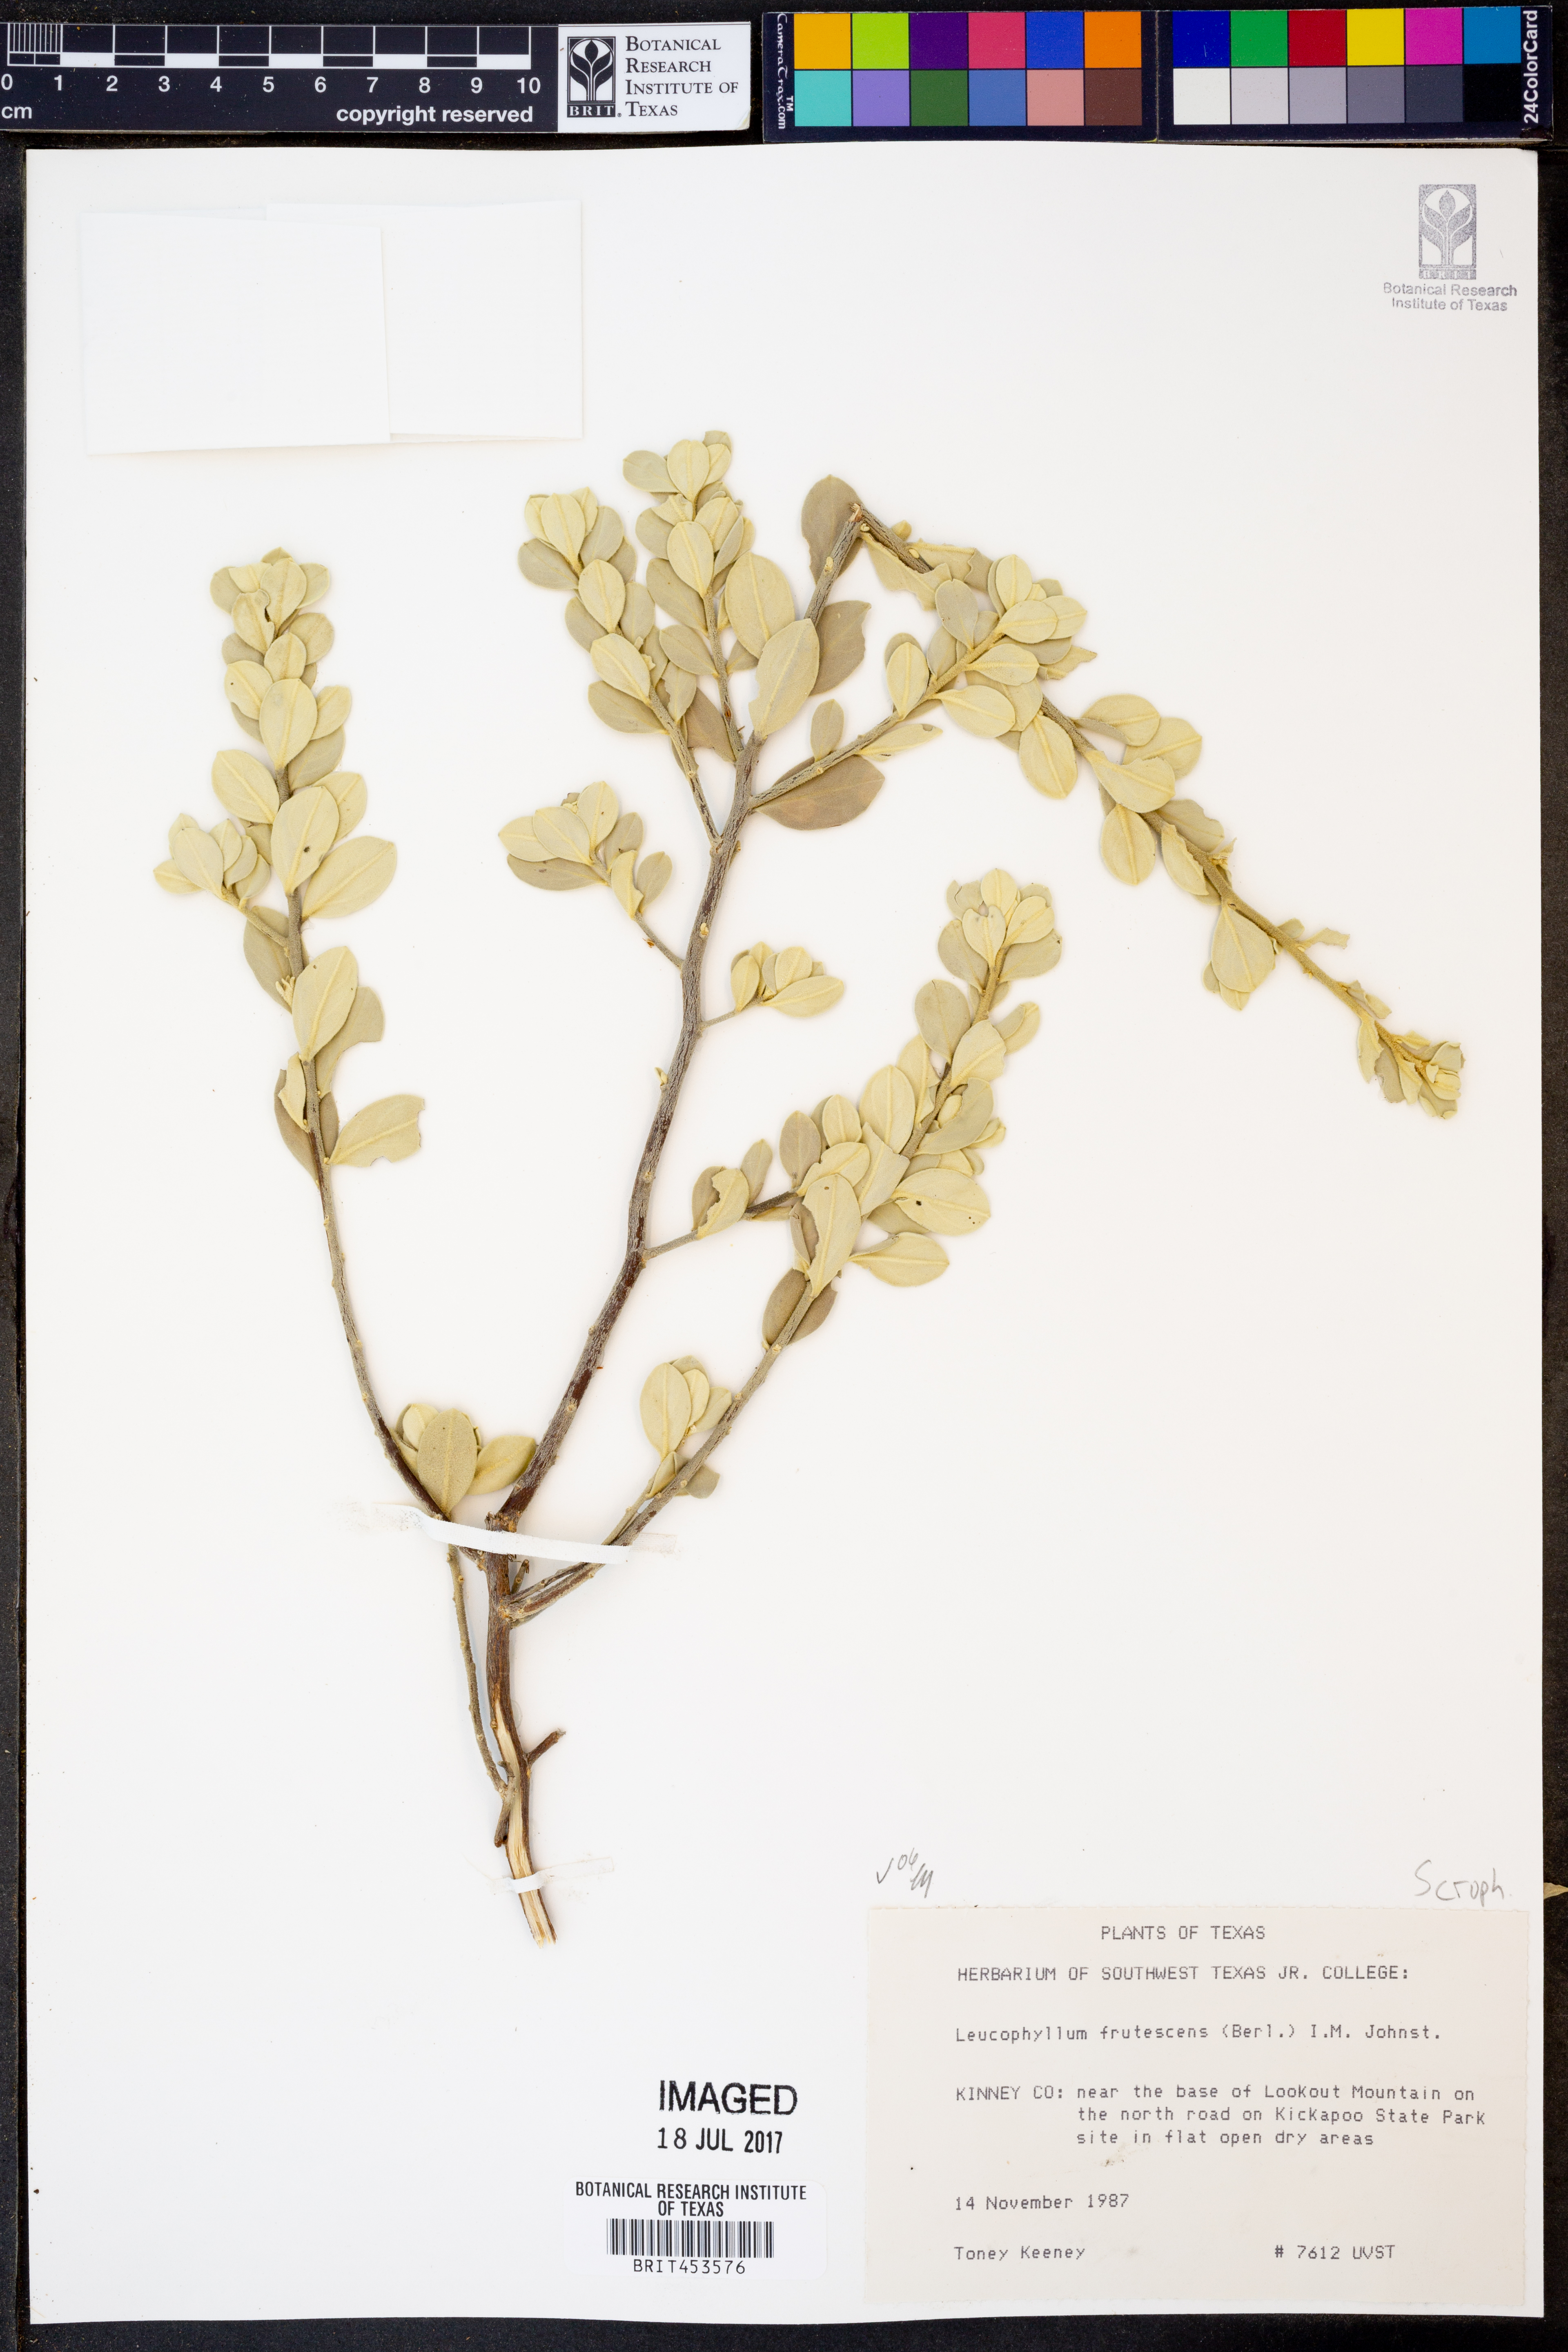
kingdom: Plantae
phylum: Tracheophyta
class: Magnoliopsida
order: Lamiales
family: Scrophulariaceae
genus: Leucophyllum
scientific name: Leucophyllum frutescens
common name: Texas silverleaf
